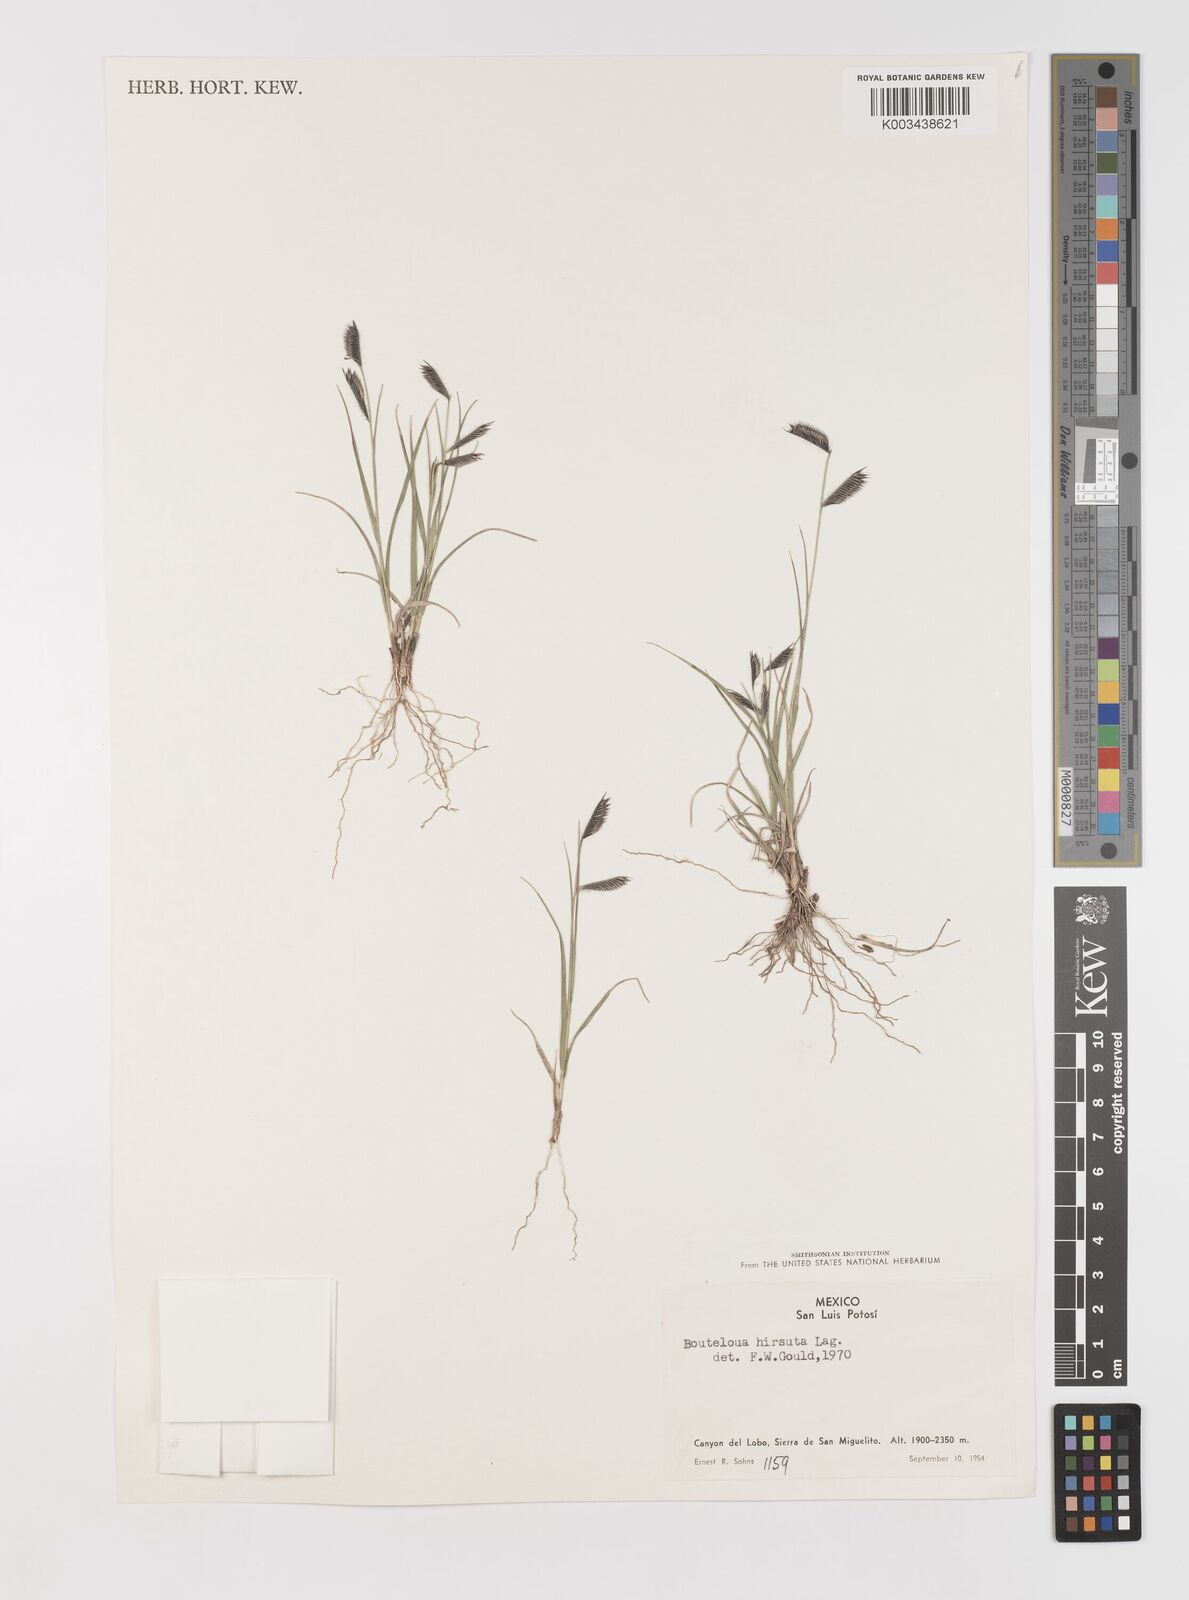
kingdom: Plantae
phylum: Tracheophyta
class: Liliopsida
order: Poales
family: Poaceae
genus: Bouteloua
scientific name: Bouteloua hirsuta
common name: Hairy grama
